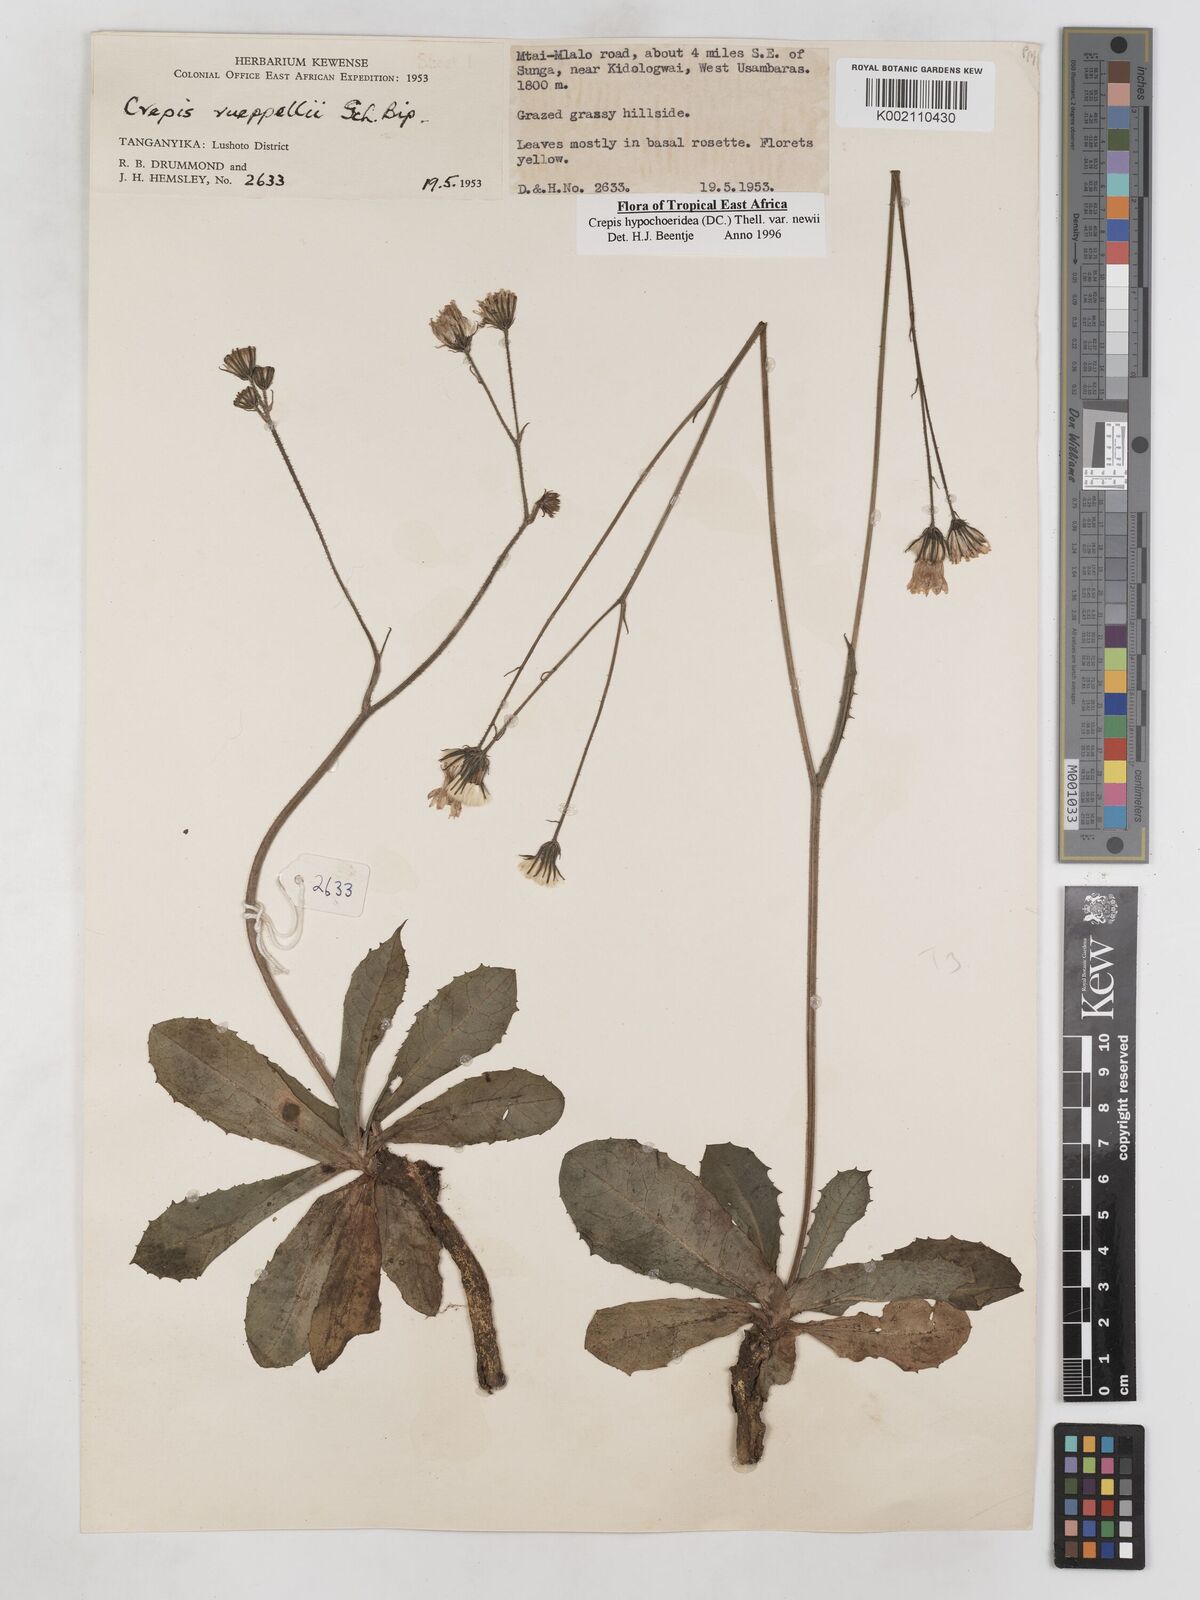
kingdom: Plantae
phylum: Tracheophyta
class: Magnoliopsida
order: Asterales
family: Asteraceae
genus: Crepis
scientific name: Crepis hypochoeridea
